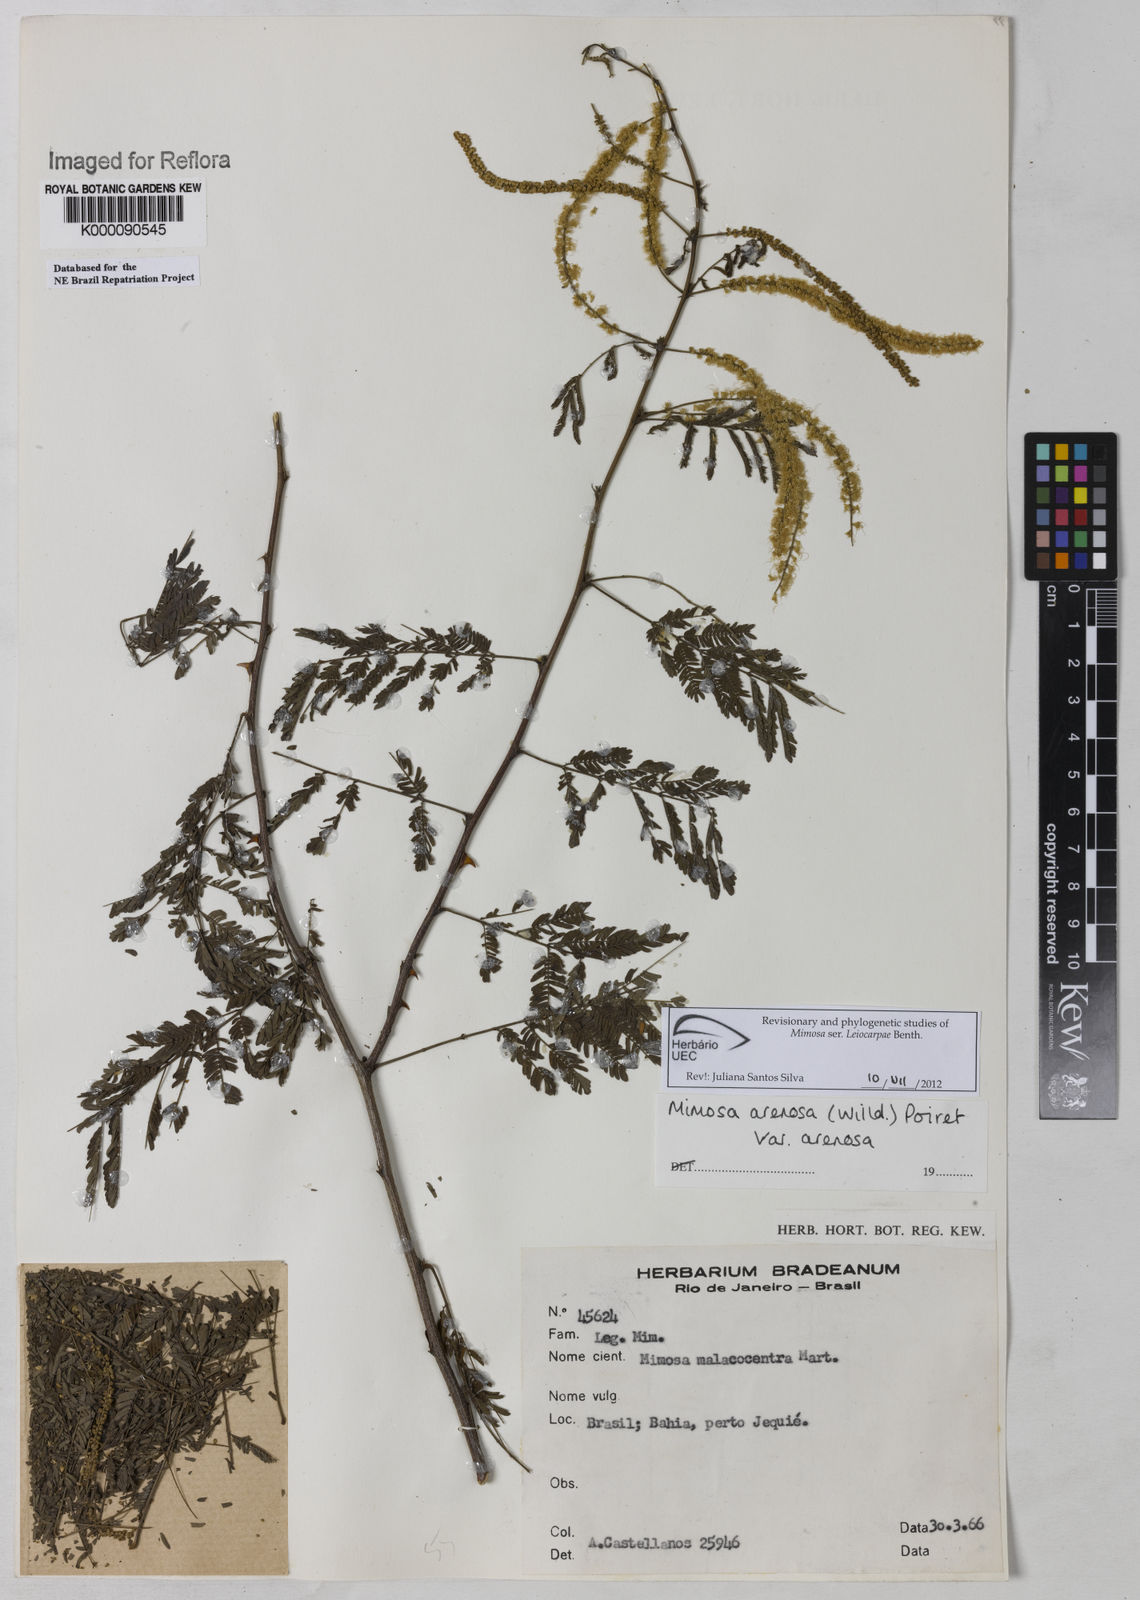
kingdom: Plantae
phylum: Tracheophyta
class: Magnoliopsida
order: Fabales
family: Fabaceae
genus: Mimosa
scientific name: Mimosa arenosa
